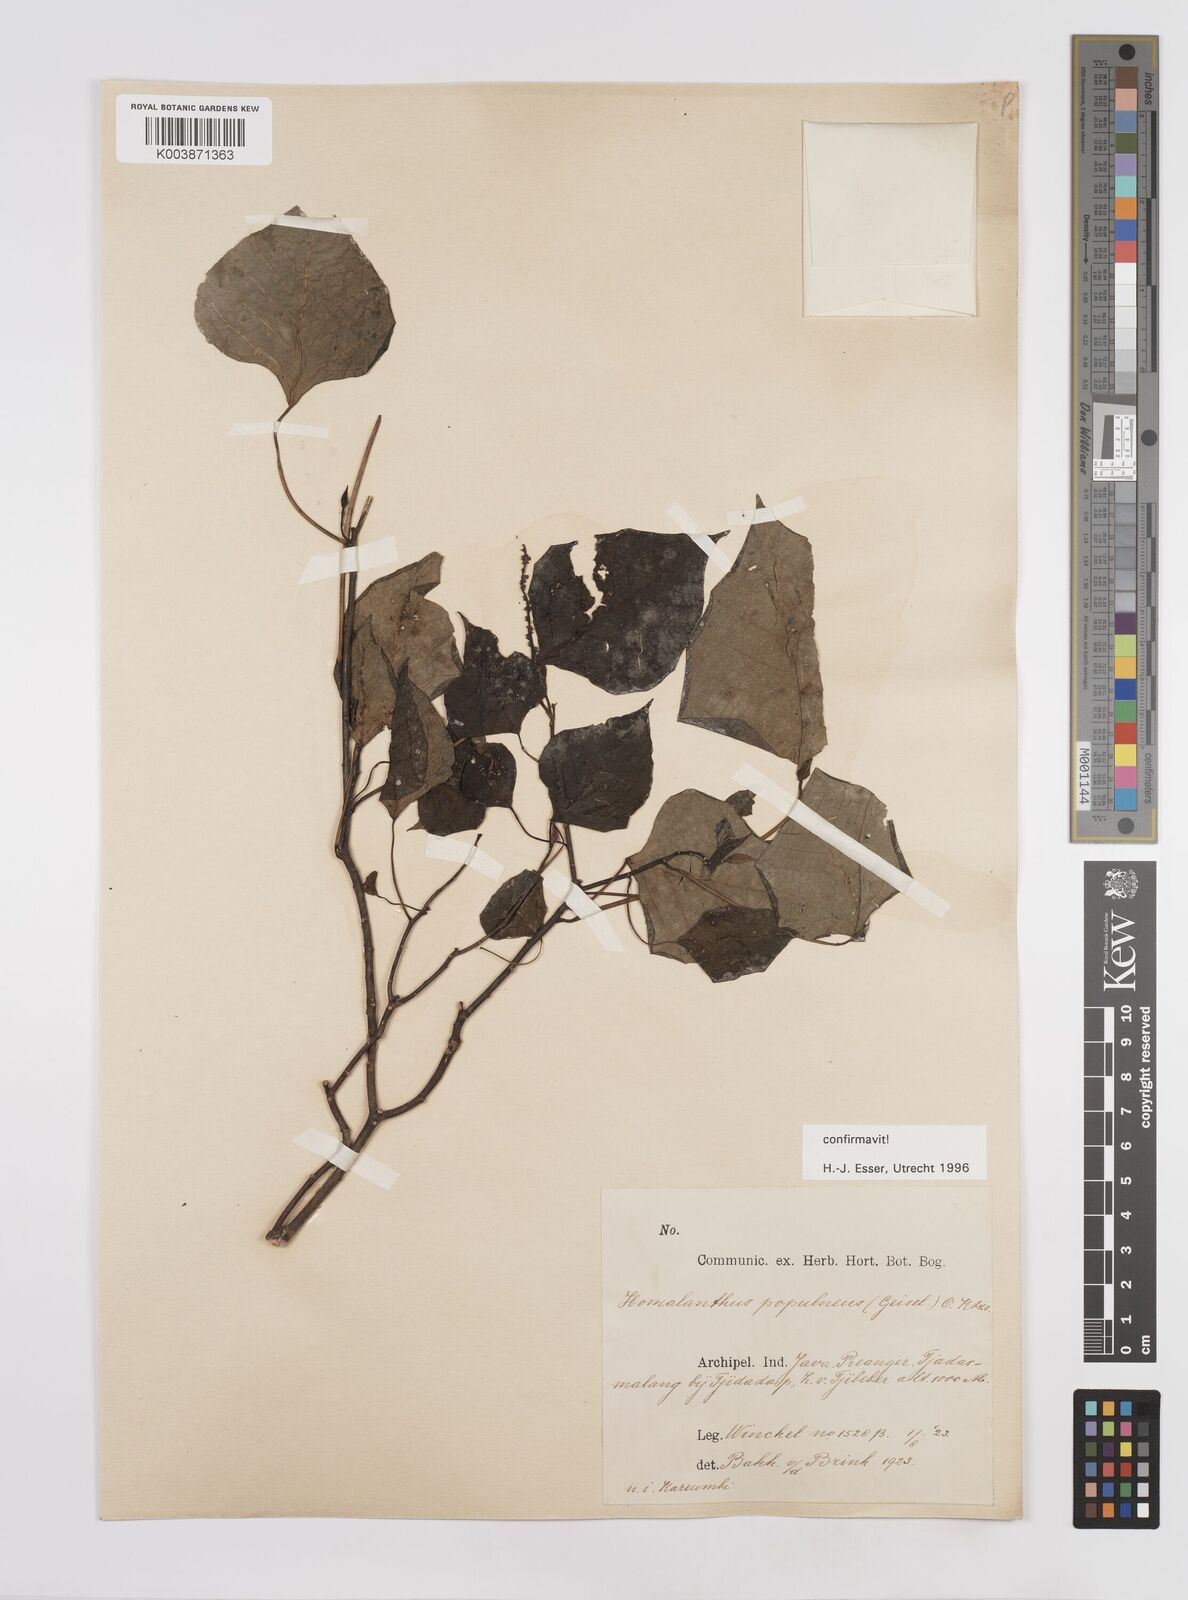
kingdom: Plantae
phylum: Tracheophyta
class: Magnoliopsida
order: Malpighiales
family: Euphorbiaceae
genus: Homalanthus
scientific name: Homalanthus populneus
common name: Spurge
